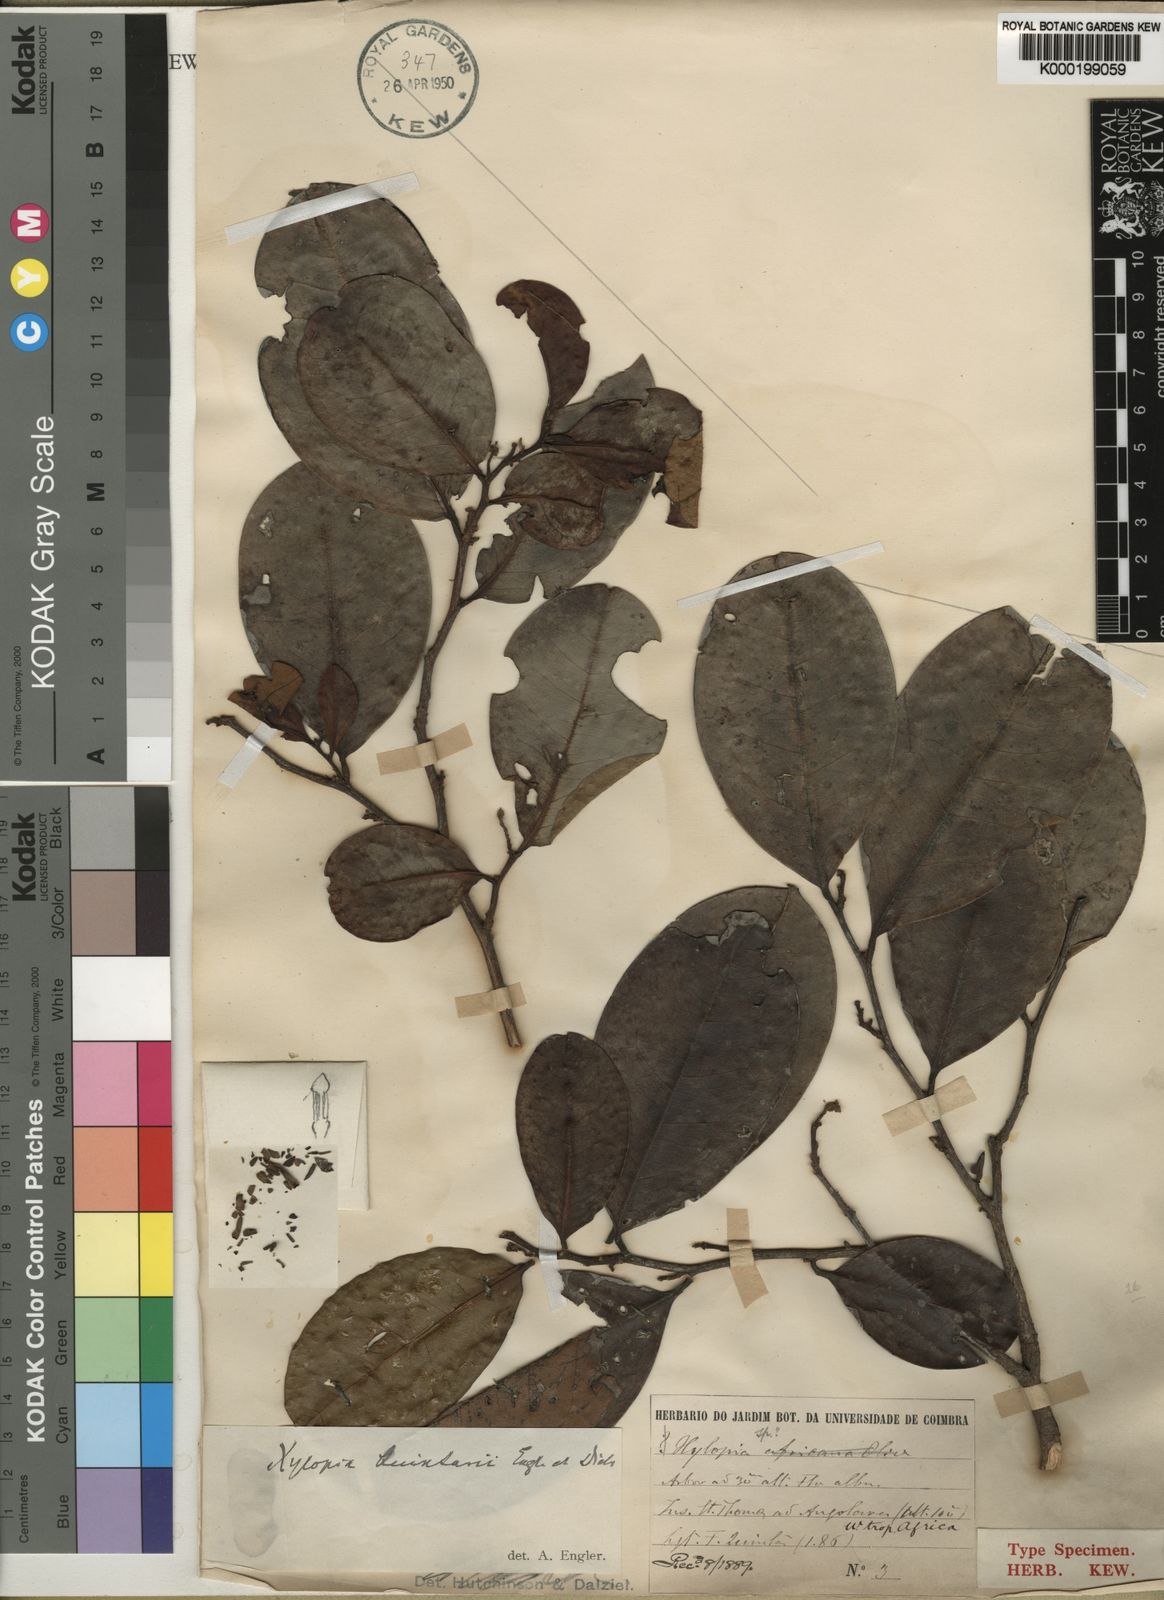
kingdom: Plantae
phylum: Tracheophyta
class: Magnoliopsida
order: Magnoliales
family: Annonaceae
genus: Xylopia
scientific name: Xylopia quintasii
